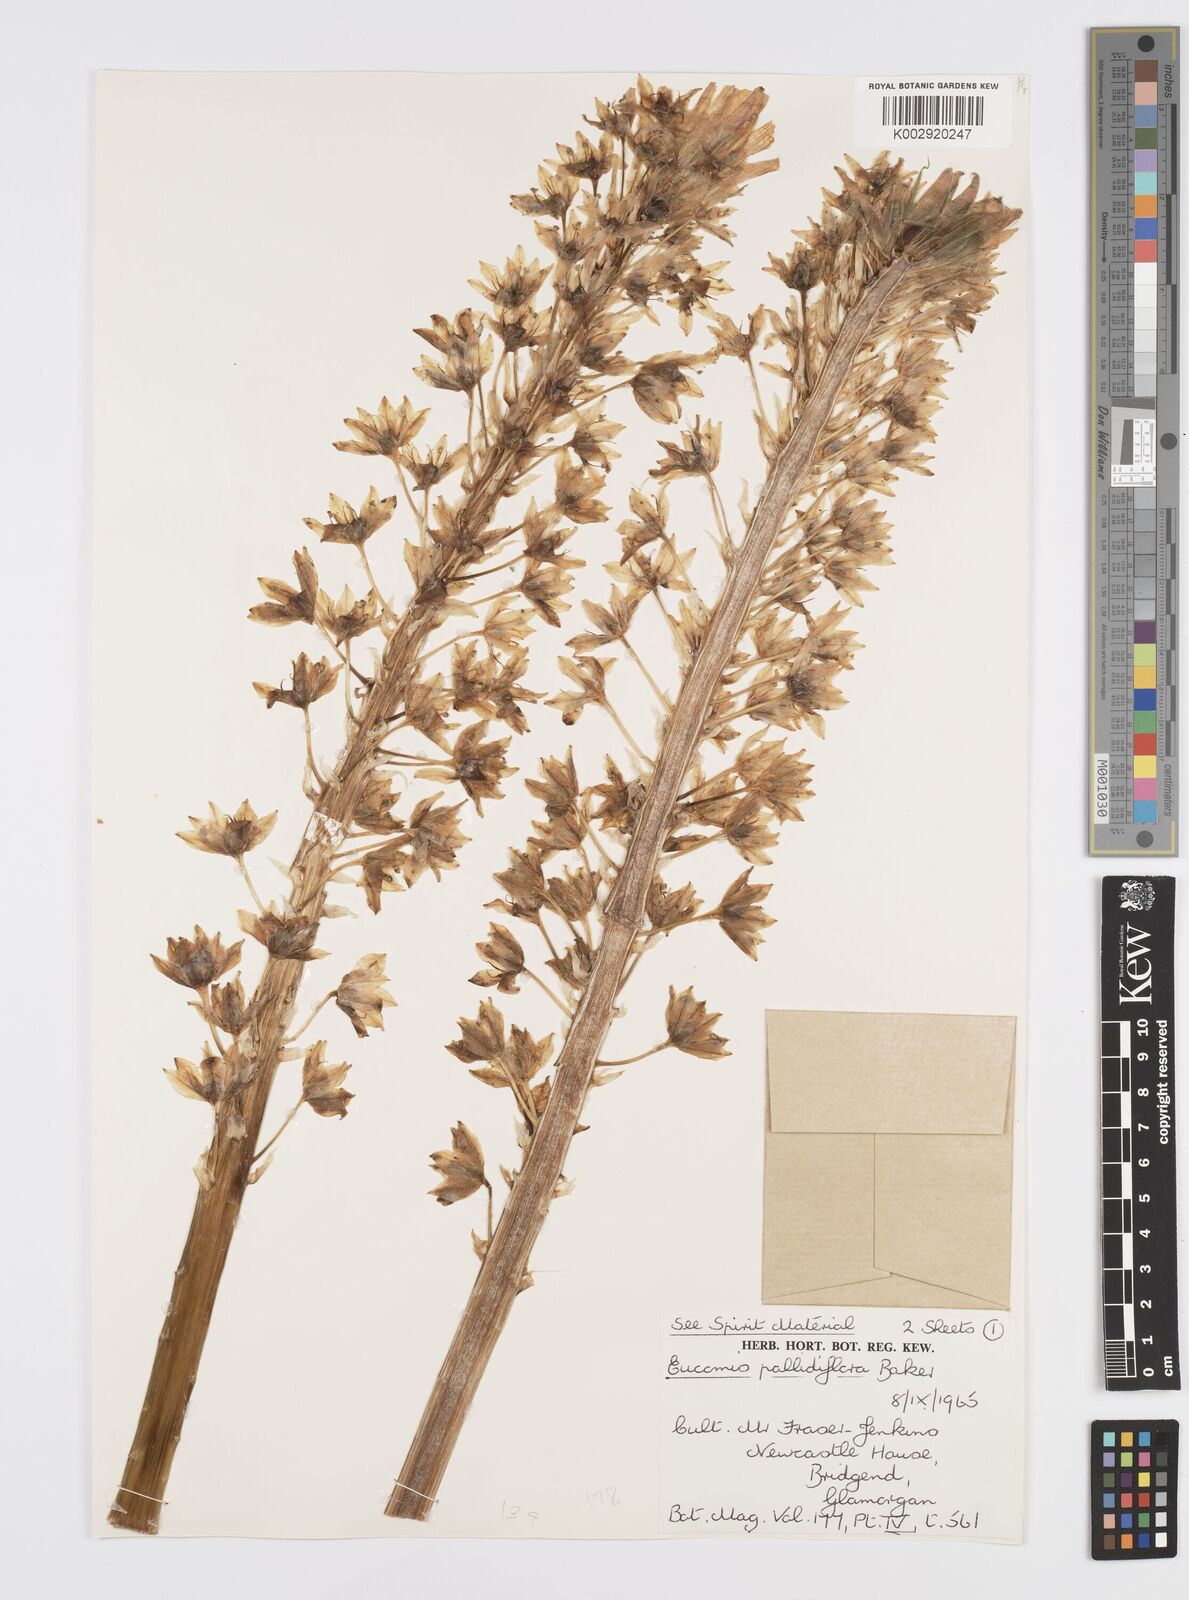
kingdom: Plantae
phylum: Tracheophyta
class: Liliopsida
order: Asparagales
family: Asparagaceae
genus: Eucomis
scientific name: Eucomis pallidiflora
